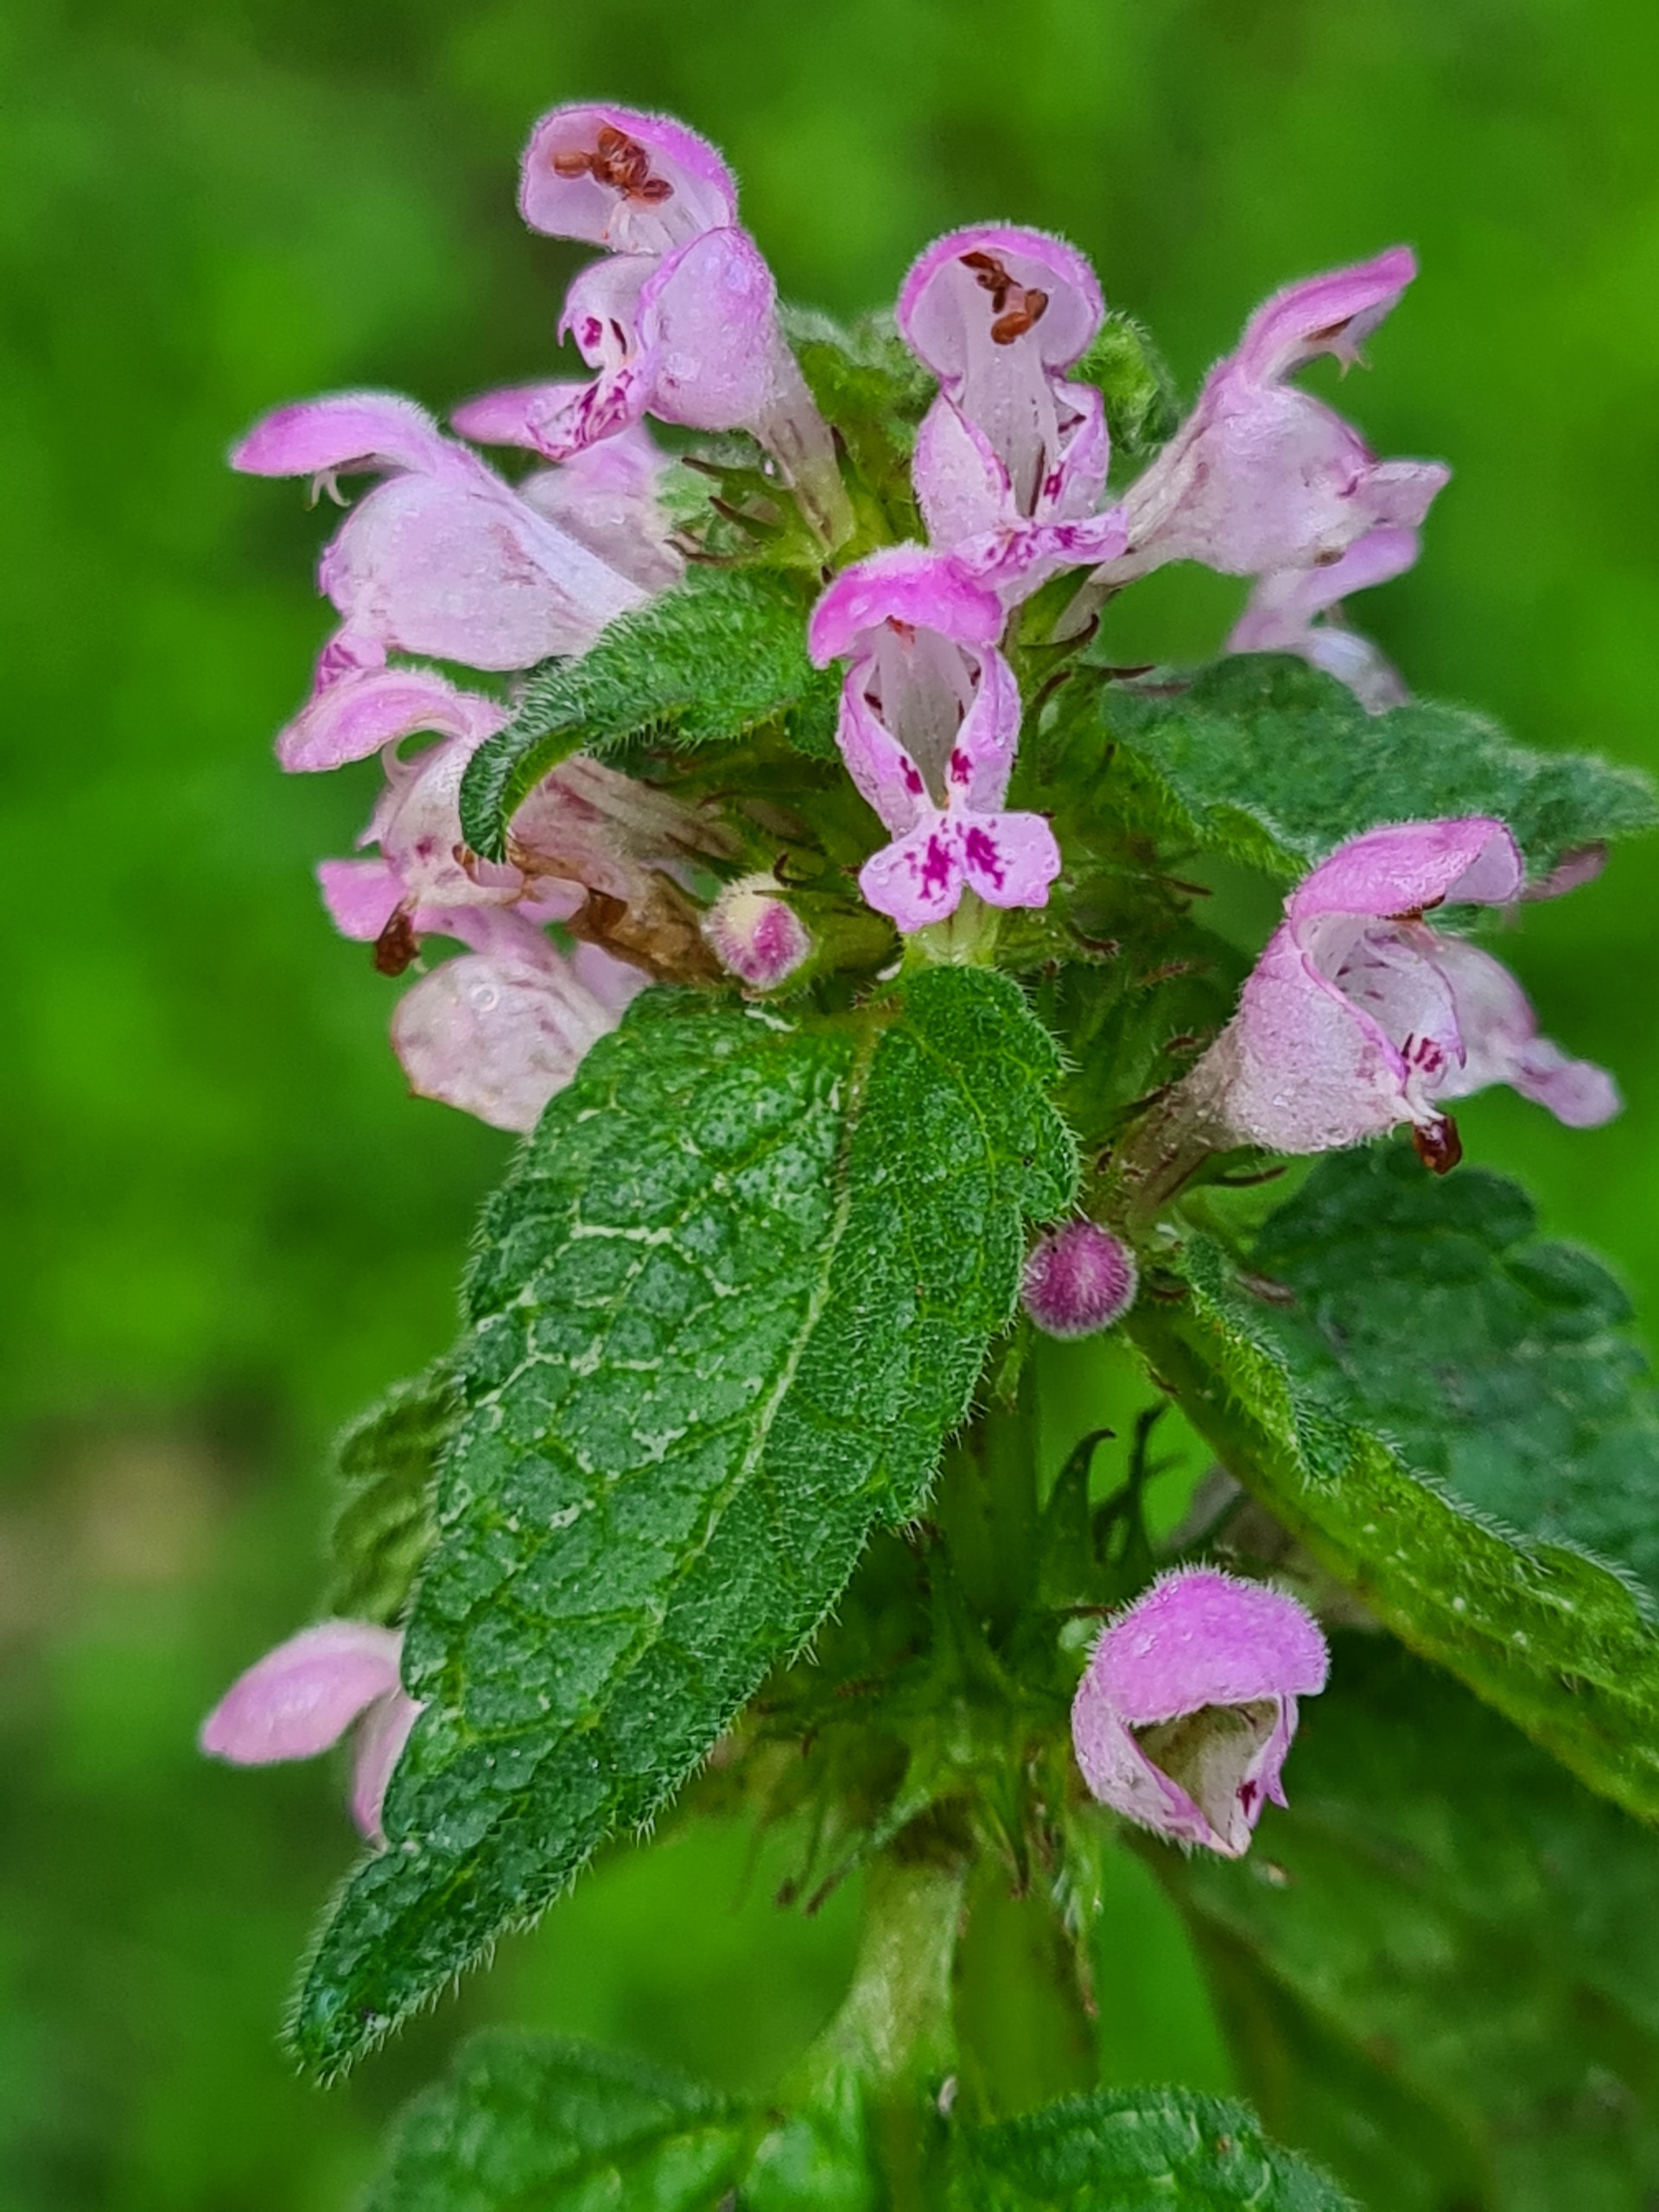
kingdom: Plantae
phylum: Tracheophyta
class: Magnoliopsida
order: Lamiales
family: Lamiaceae
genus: Lamium
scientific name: Lamium purpureum
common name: Rød tvetand
